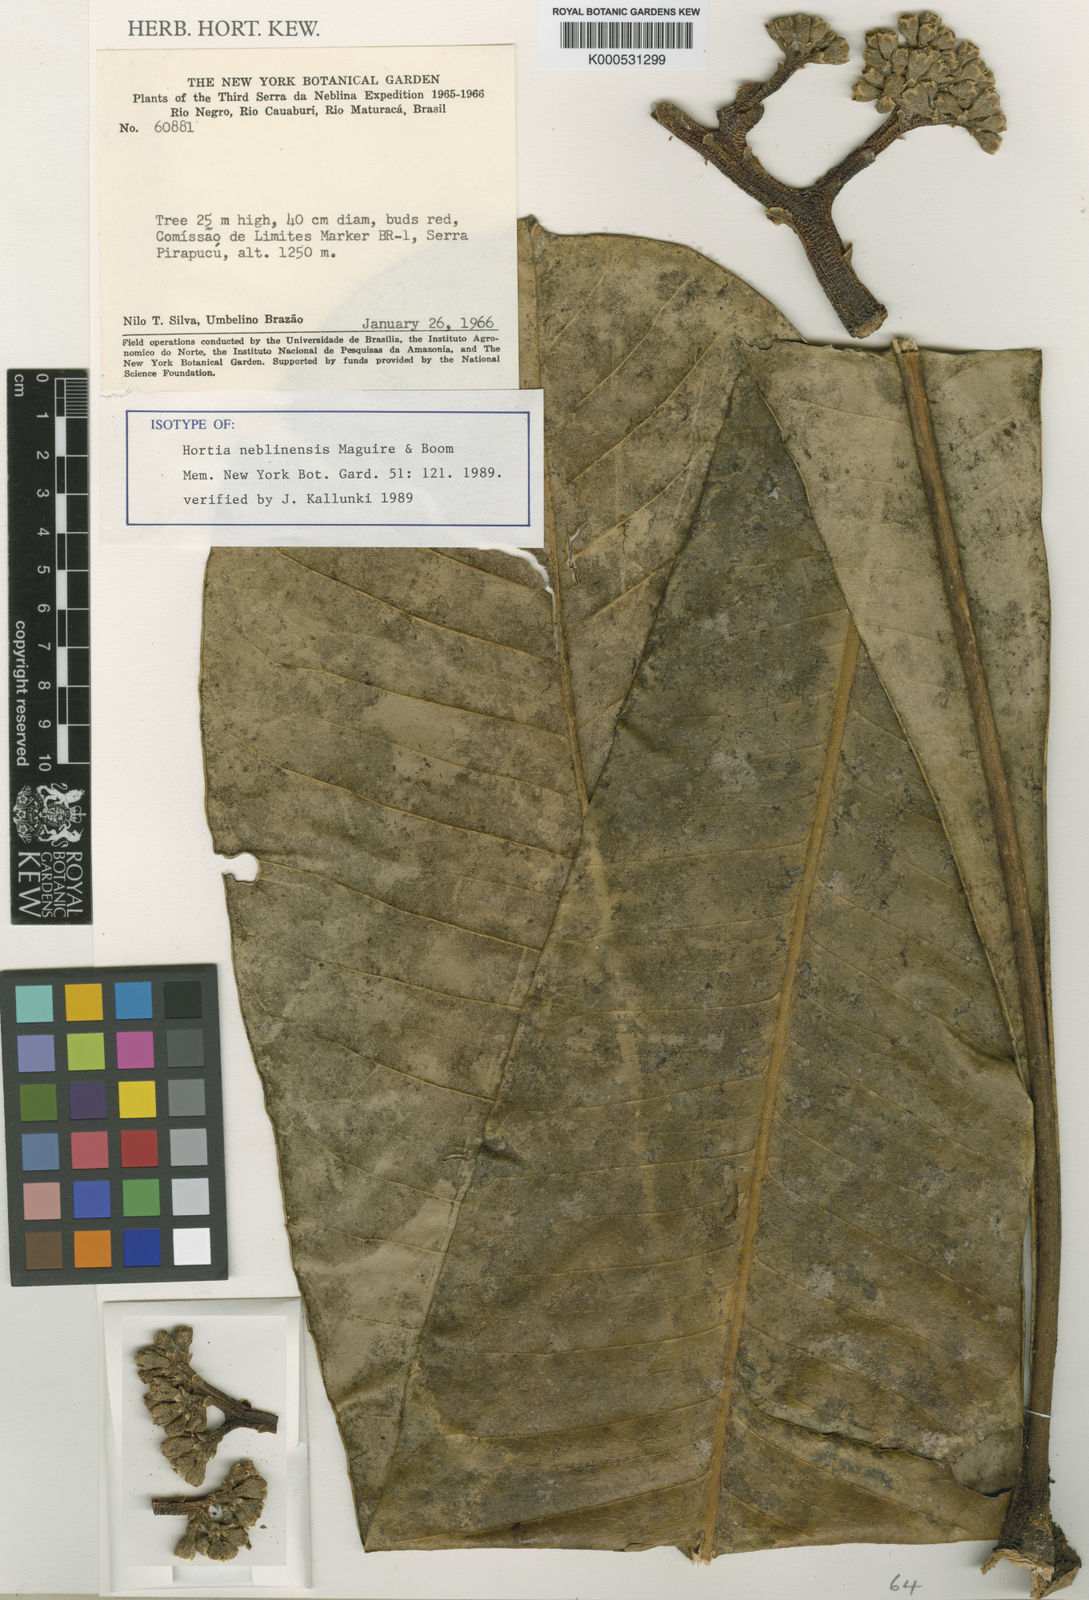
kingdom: Plantae
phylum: Tracheophyta
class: Magnoliopsida
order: Sapindales
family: Rutaceae
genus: Hortia
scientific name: Hortia neblinensis
